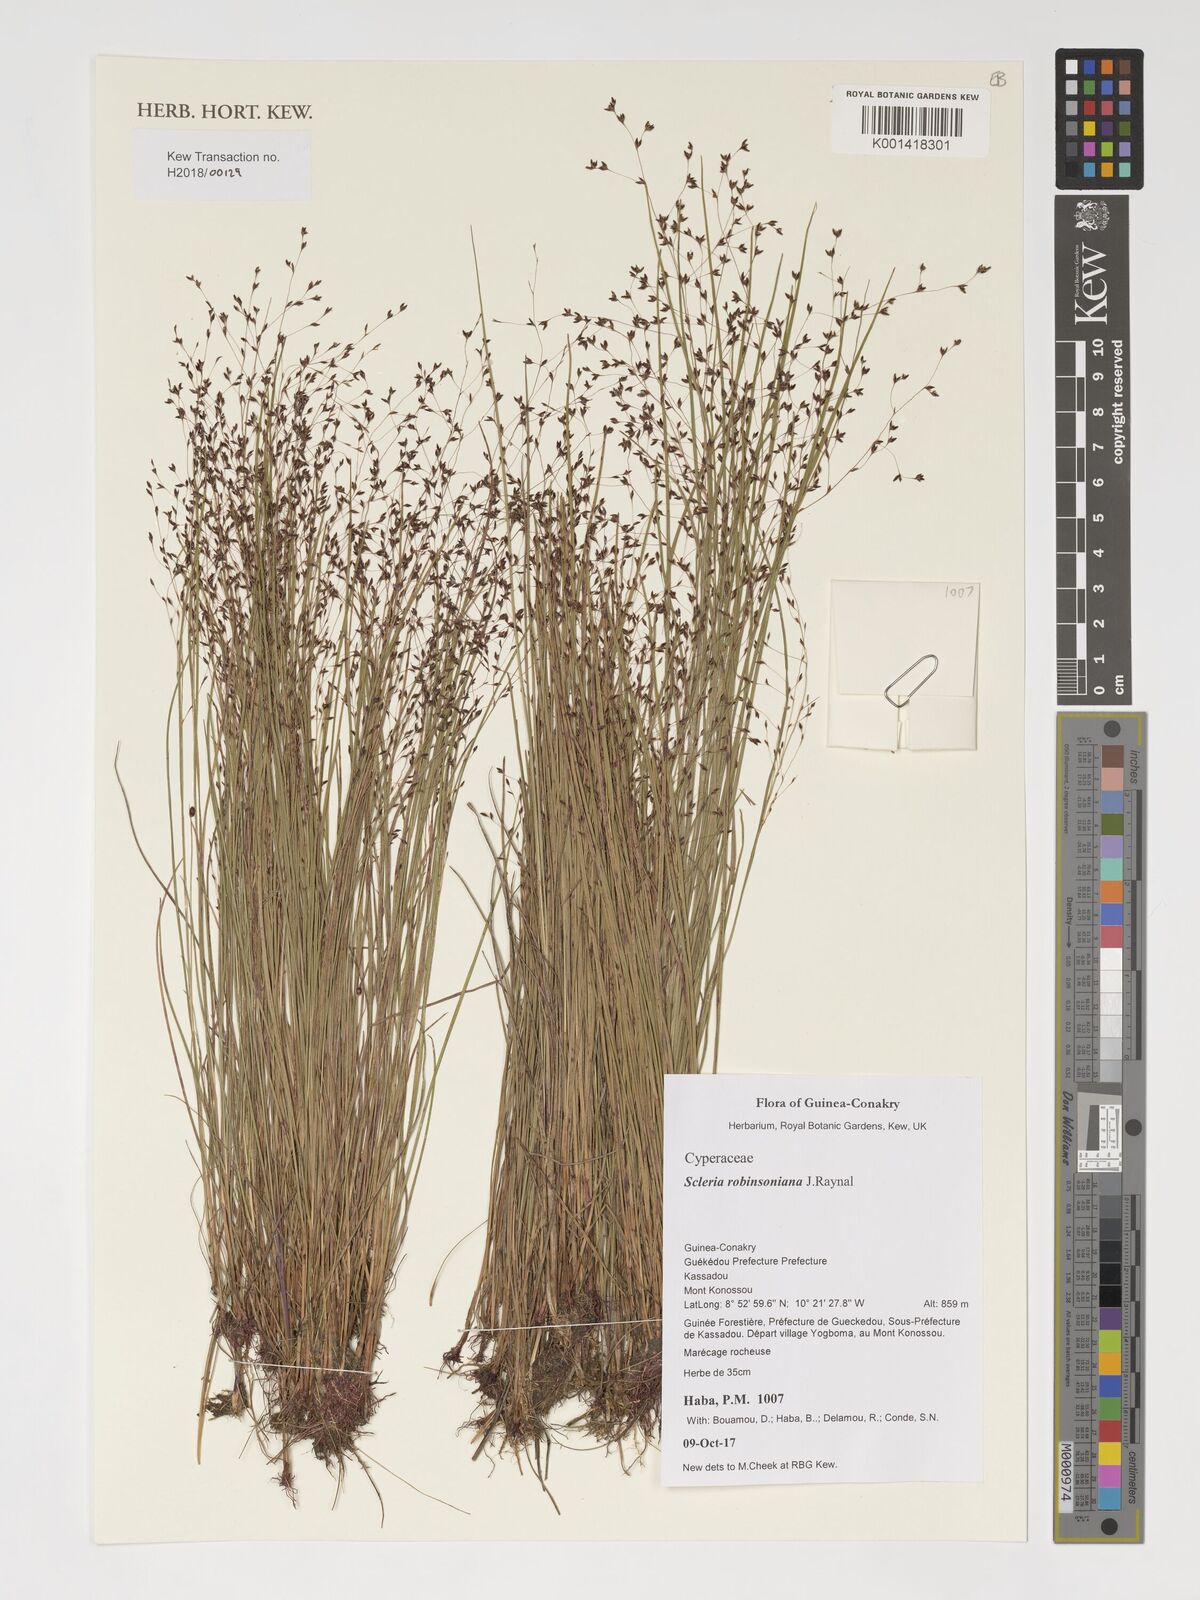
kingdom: Plantae
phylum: Tracheophyta
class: Liliopsida
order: Poales
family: Cyperaceae
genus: Scleria
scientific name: Scleria robinsoniana
